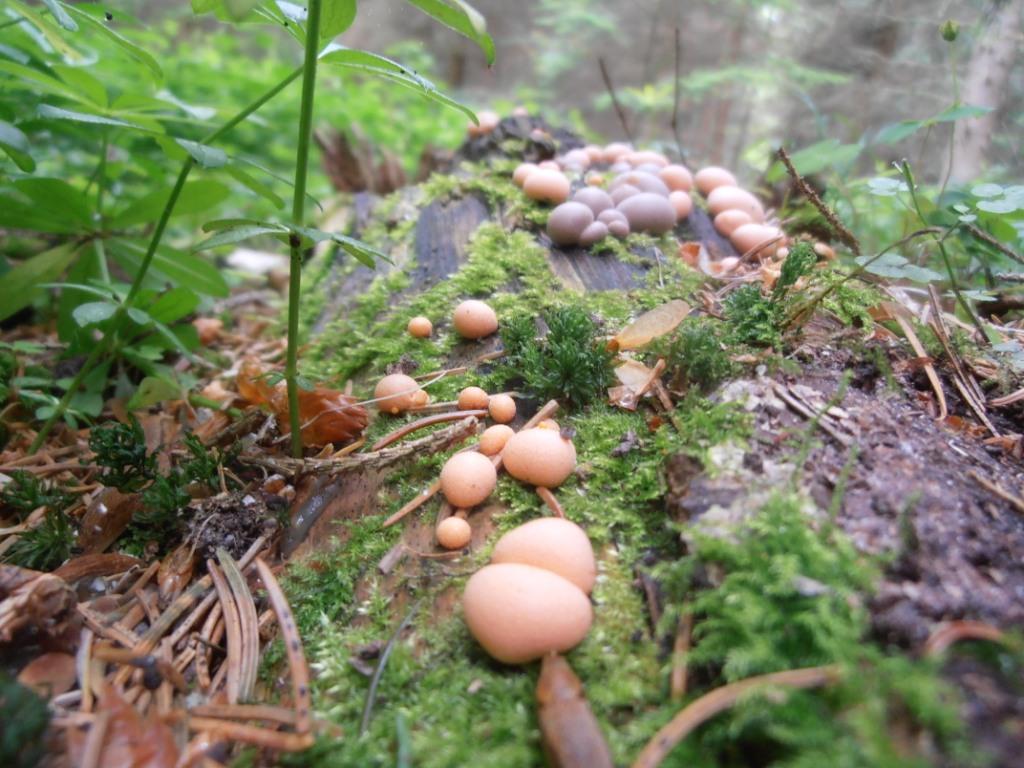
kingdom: Protozoa
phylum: Mycetozoa
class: Myxomycetes
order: Cribrariales
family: Tubiferaceae
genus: Lycogala
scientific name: Lycogala epidendrum
